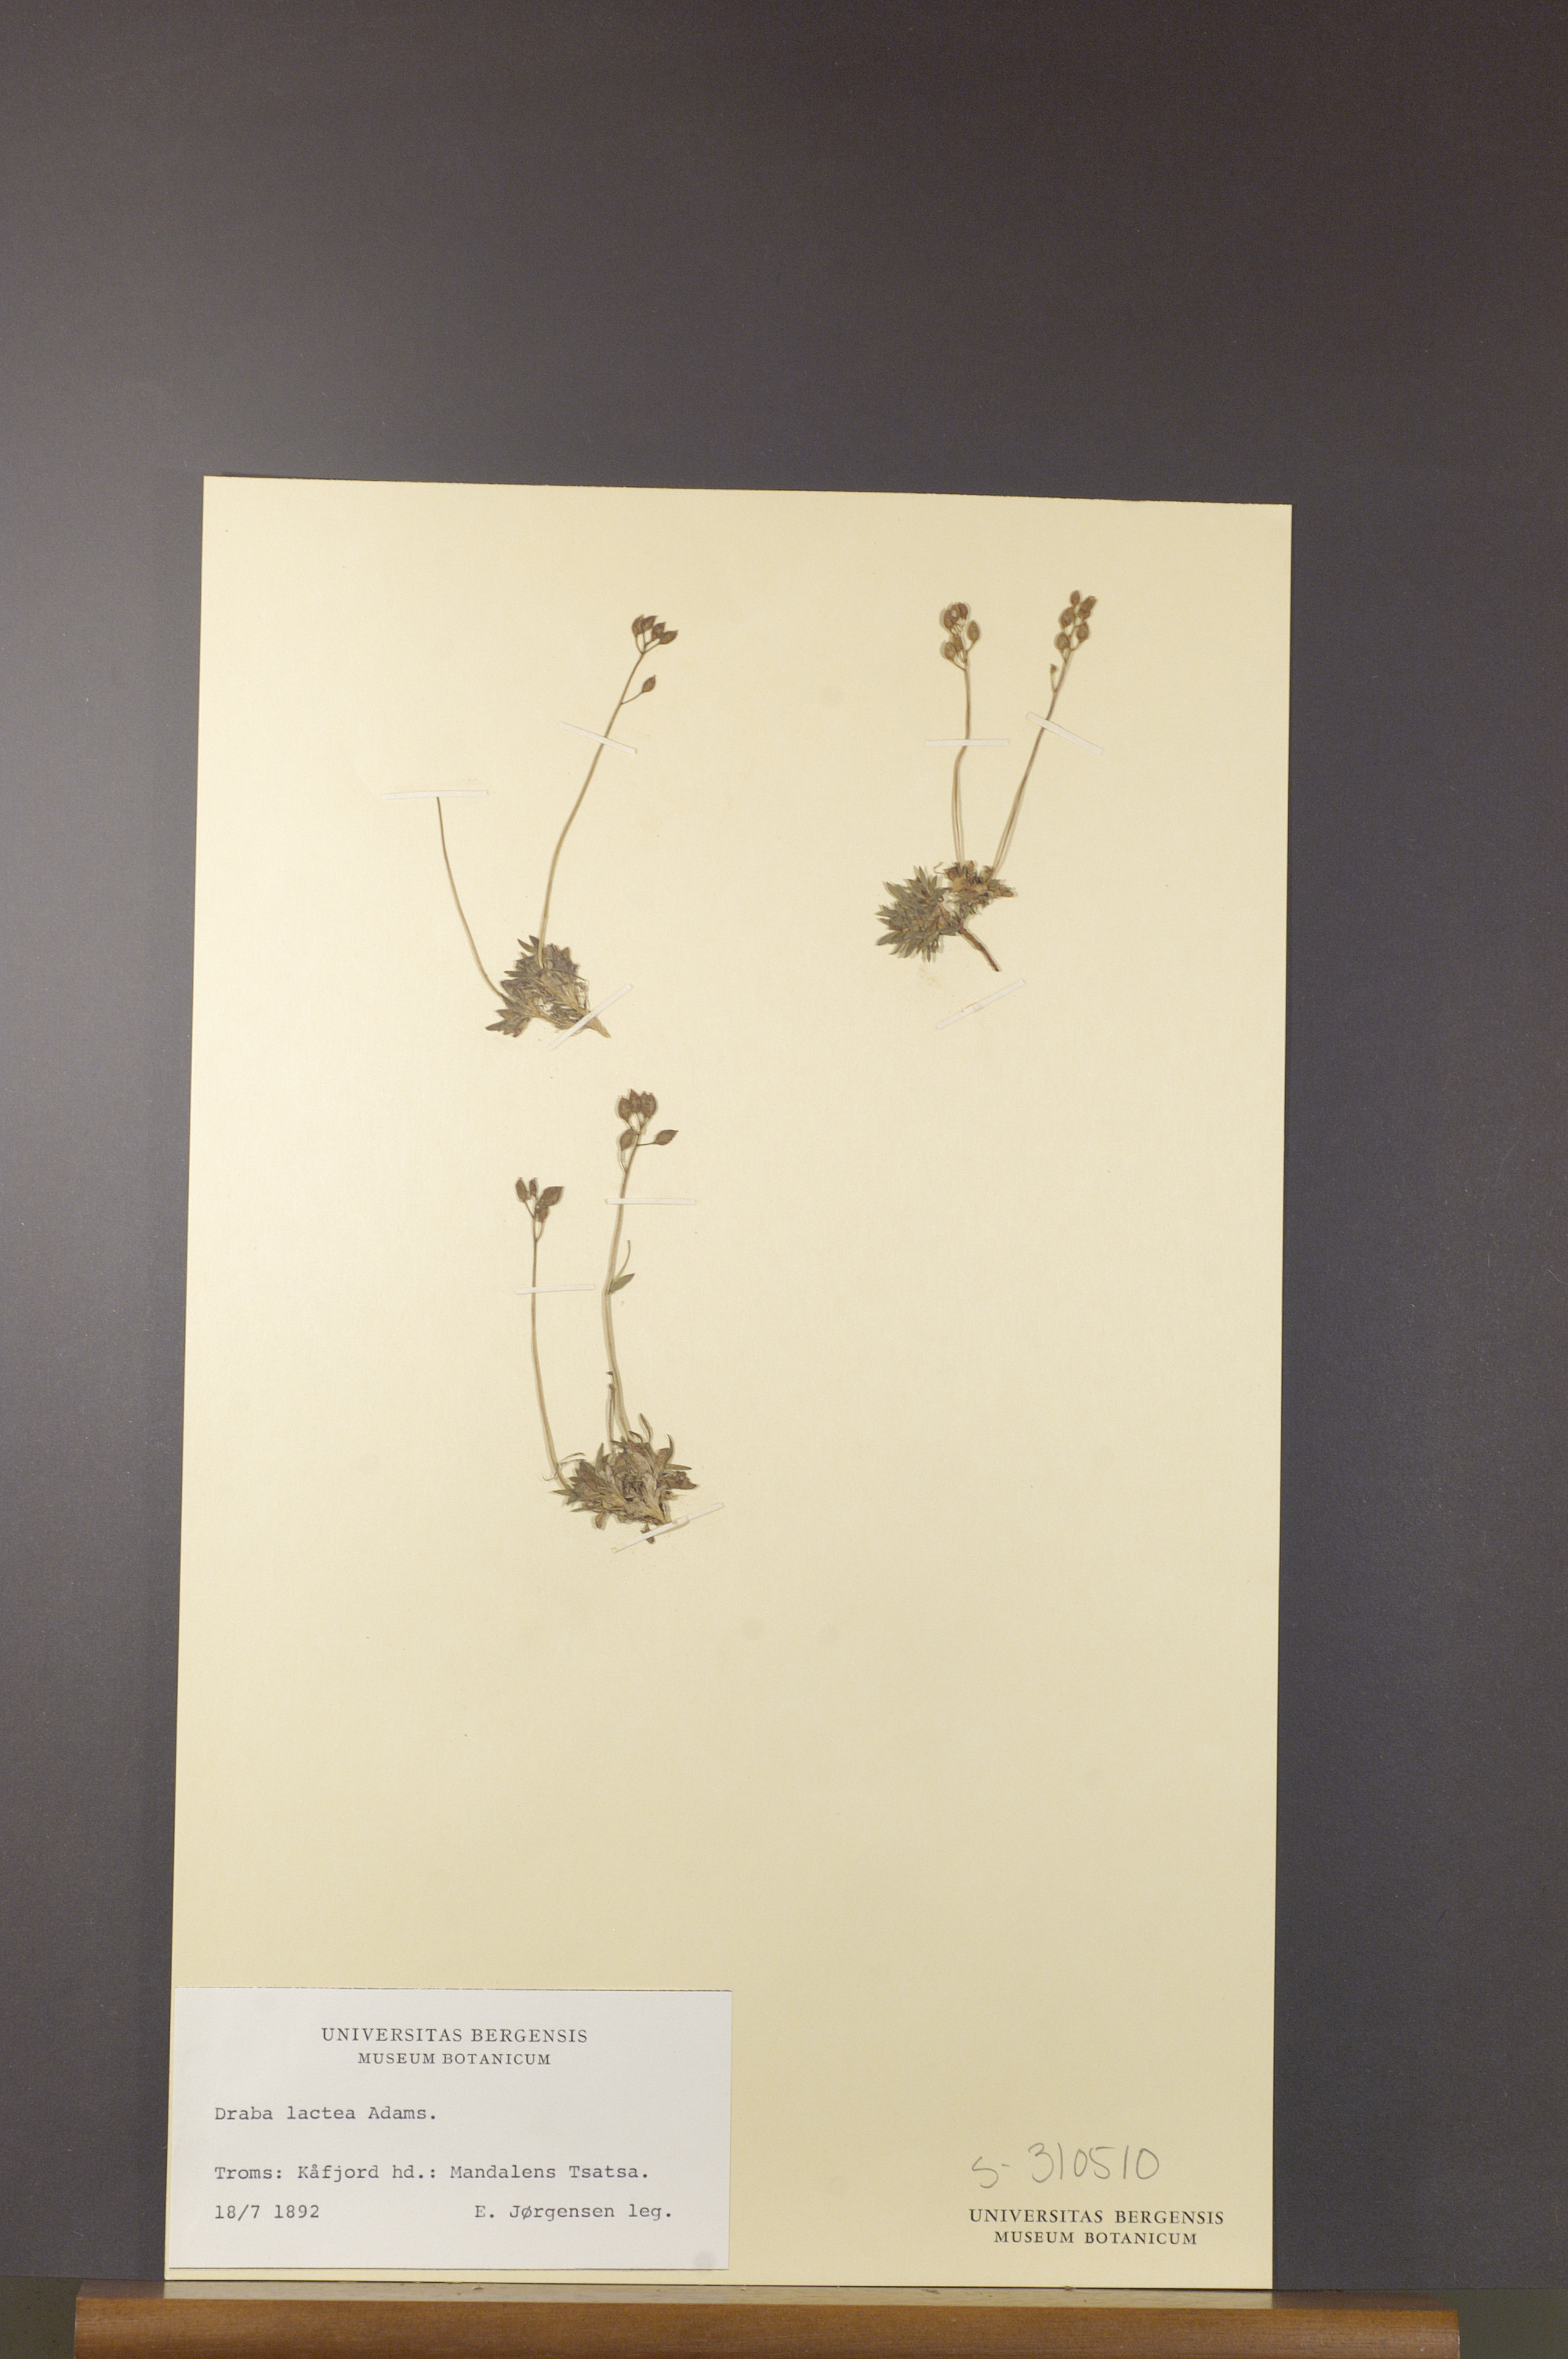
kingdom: Plantae
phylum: Tracheophyta
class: Magnoliopsida
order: Brassicales
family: Brassicaceae
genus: Draba
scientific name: Draba lactea
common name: Milky draba
